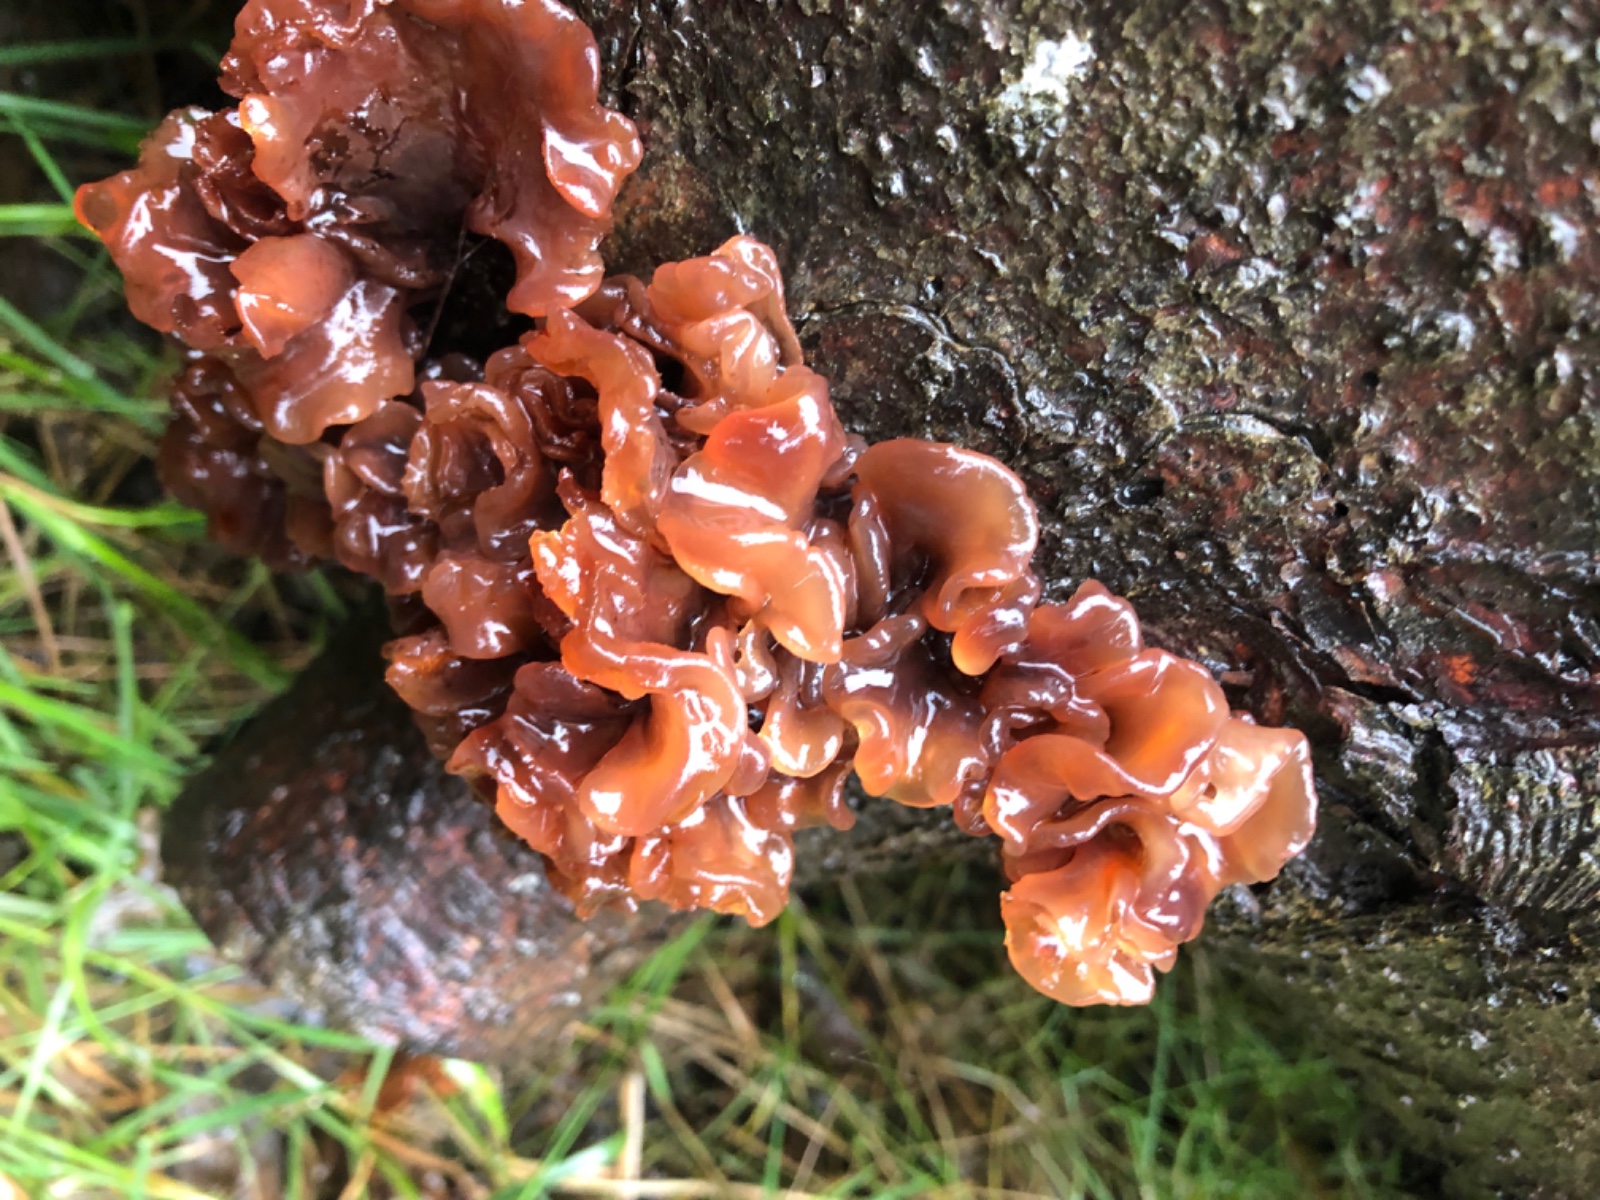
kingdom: Fungi
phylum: Basidiomycota
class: Tremellomycetes
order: Tremellales
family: Tremellaceae
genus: Phaeotremella
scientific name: Phaeotremella foliacea
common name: brun bævresvamp
